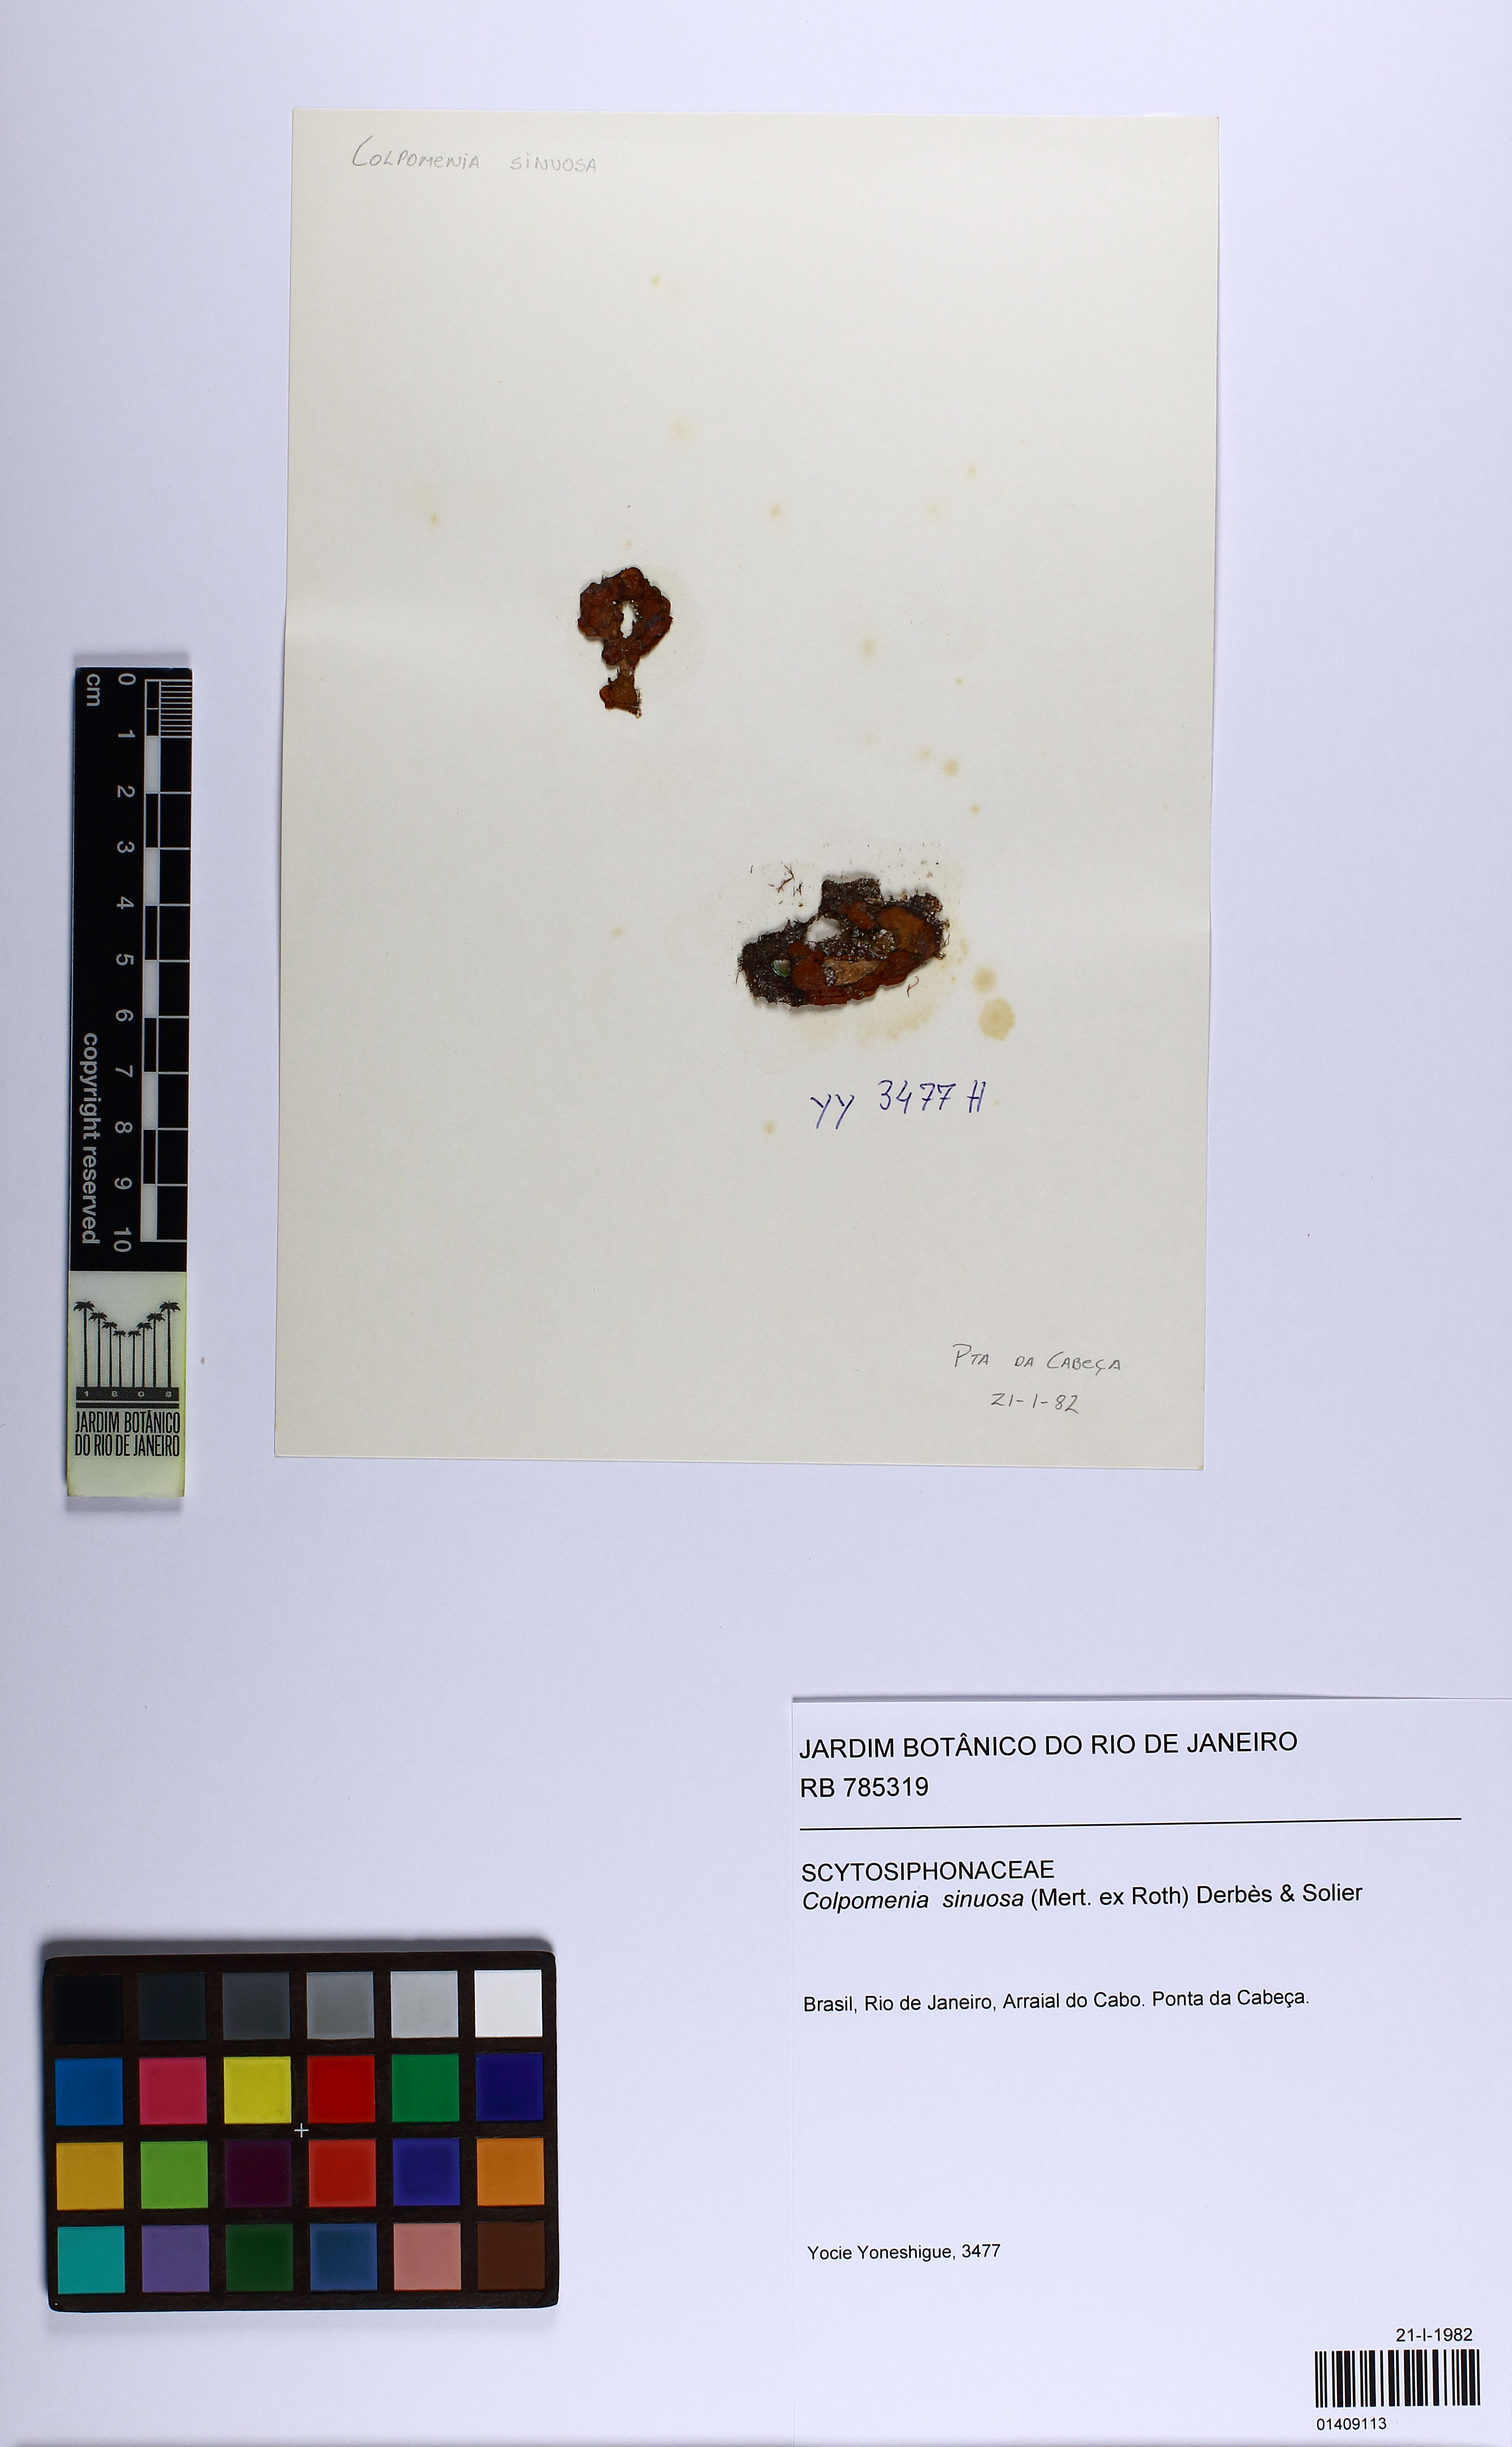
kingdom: Chromista
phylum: Ochrophyta
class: Phaeophyceae
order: Scytosiphonales
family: Scytosiphonaceae
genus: Colpomenia
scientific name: Colpomenia sinuosa
